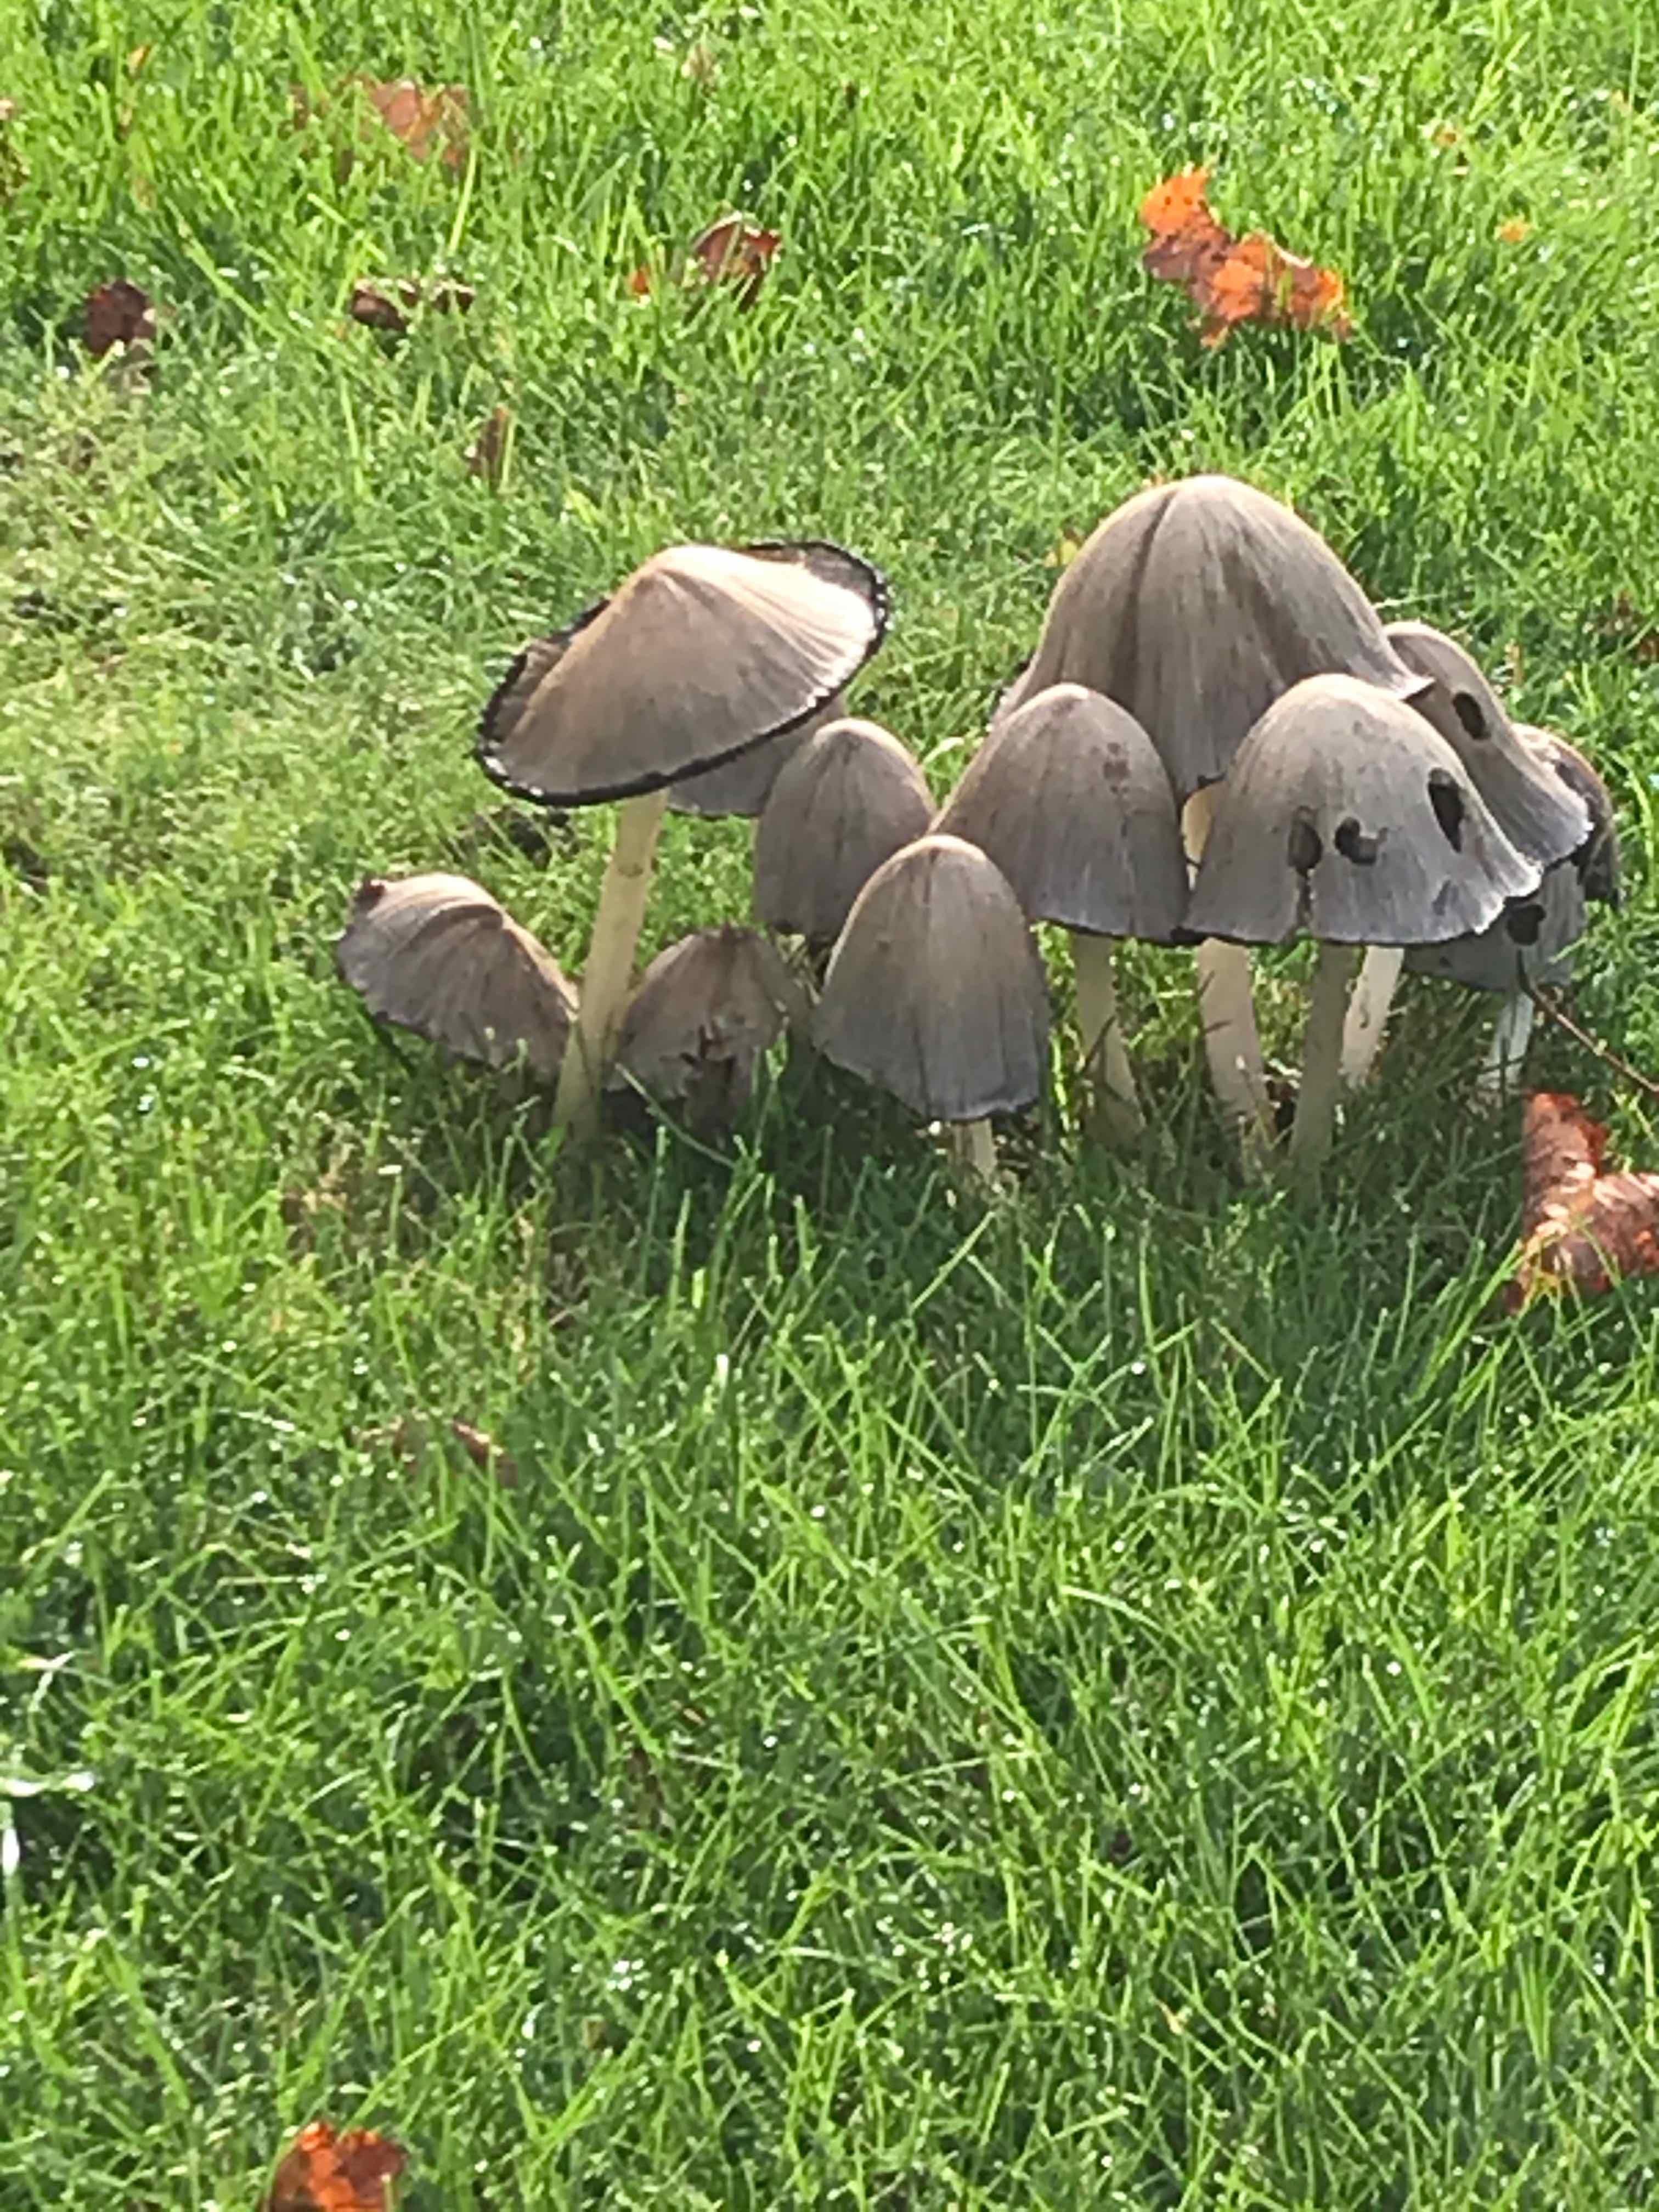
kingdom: Fungi
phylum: Basidiomycota
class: Agaricomycetes
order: Agaricales
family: Psathyrellaceae
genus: Coprinopsis
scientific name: Coprinopsis atramentaria
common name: almindelig blækhat
